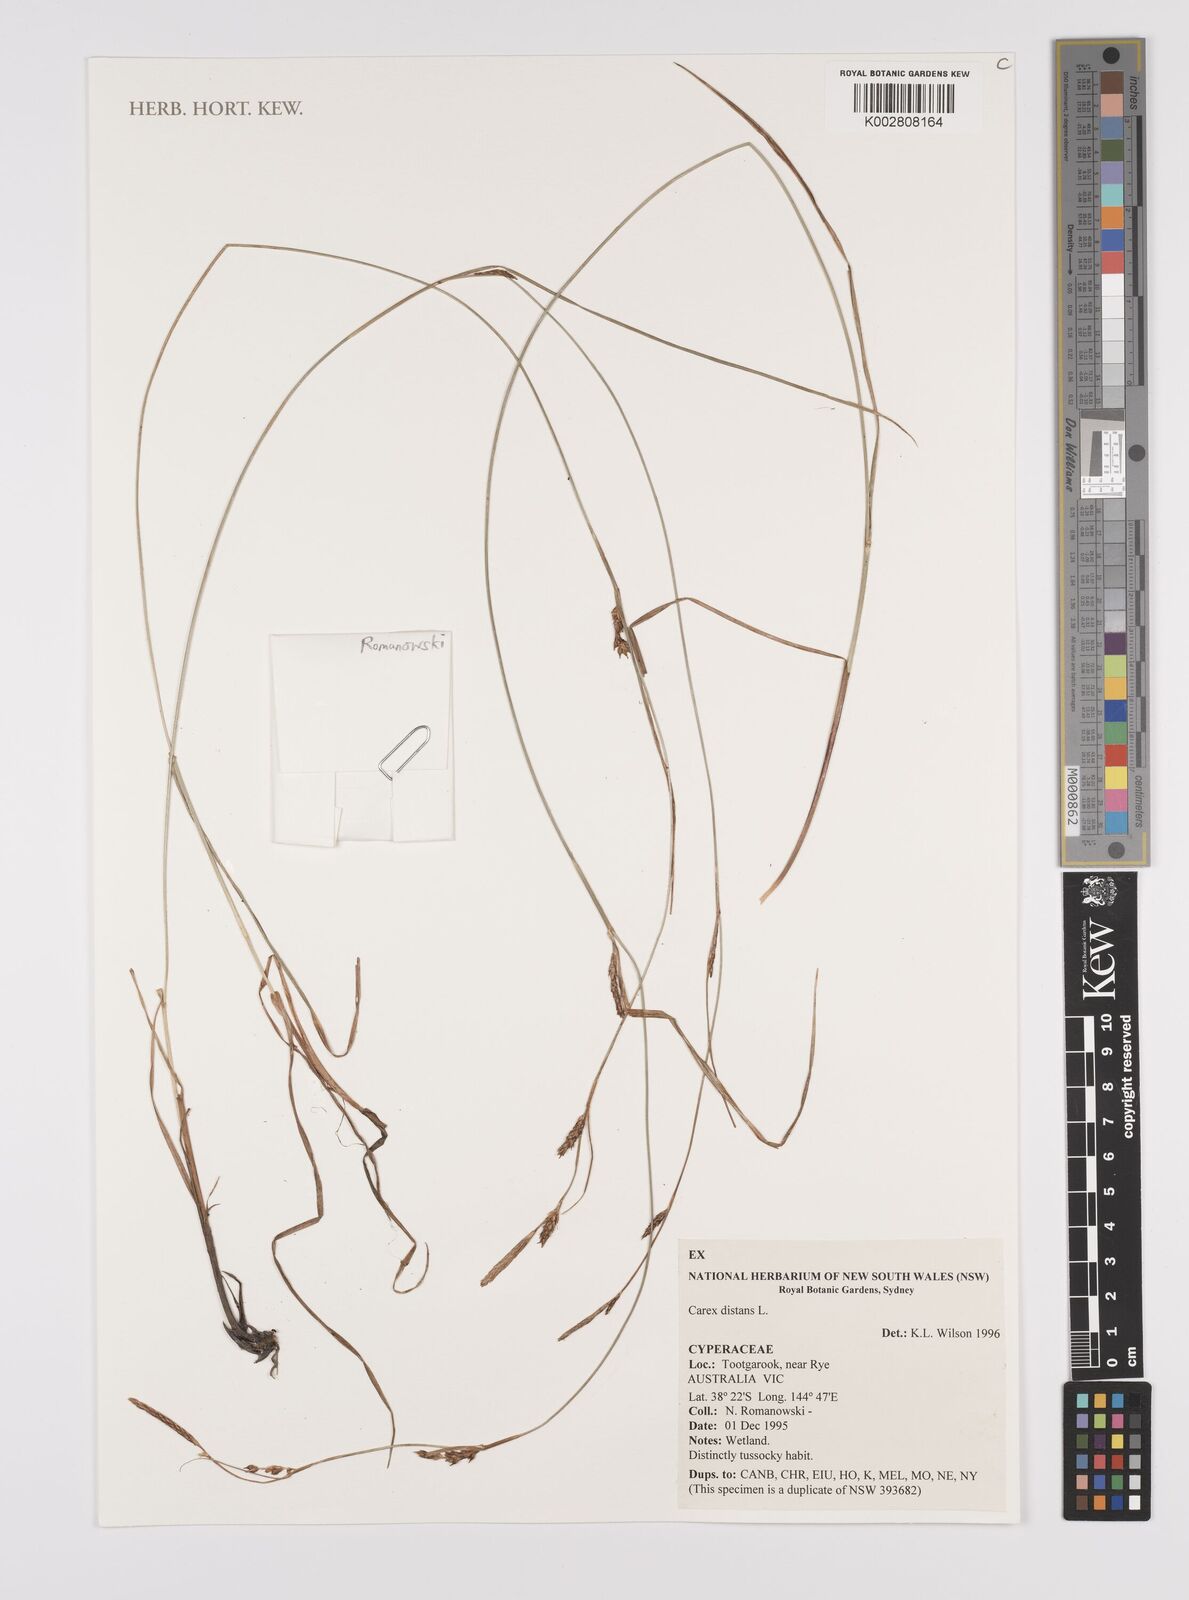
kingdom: Plantae
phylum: Tracheophyta
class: Liliopsida
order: Poales
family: Cyperaceae
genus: Carex
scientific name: Carex distans
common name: Distant sedge
